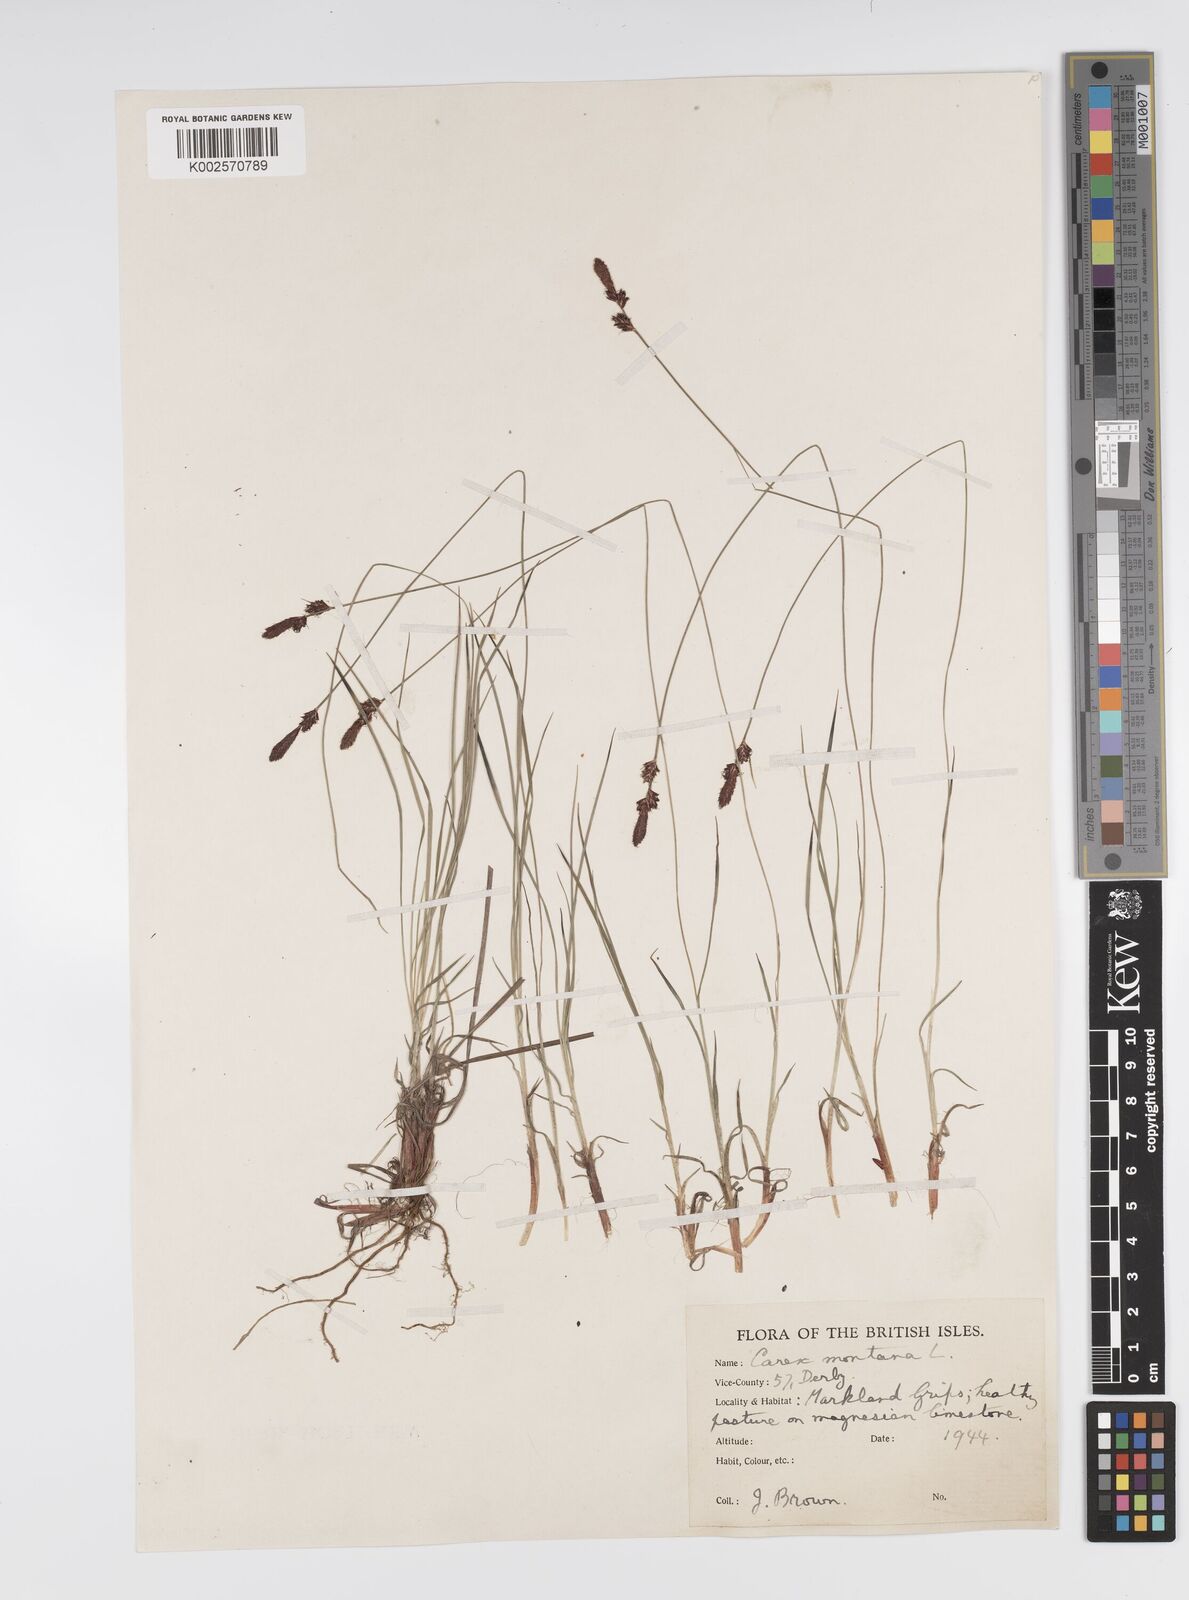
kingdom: Plantae
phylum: Tracheophyta
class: Liliopsida
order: Poales
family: Cyperaceae
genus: Carex
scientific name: Carex montana
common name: Soft-leaved sedge
